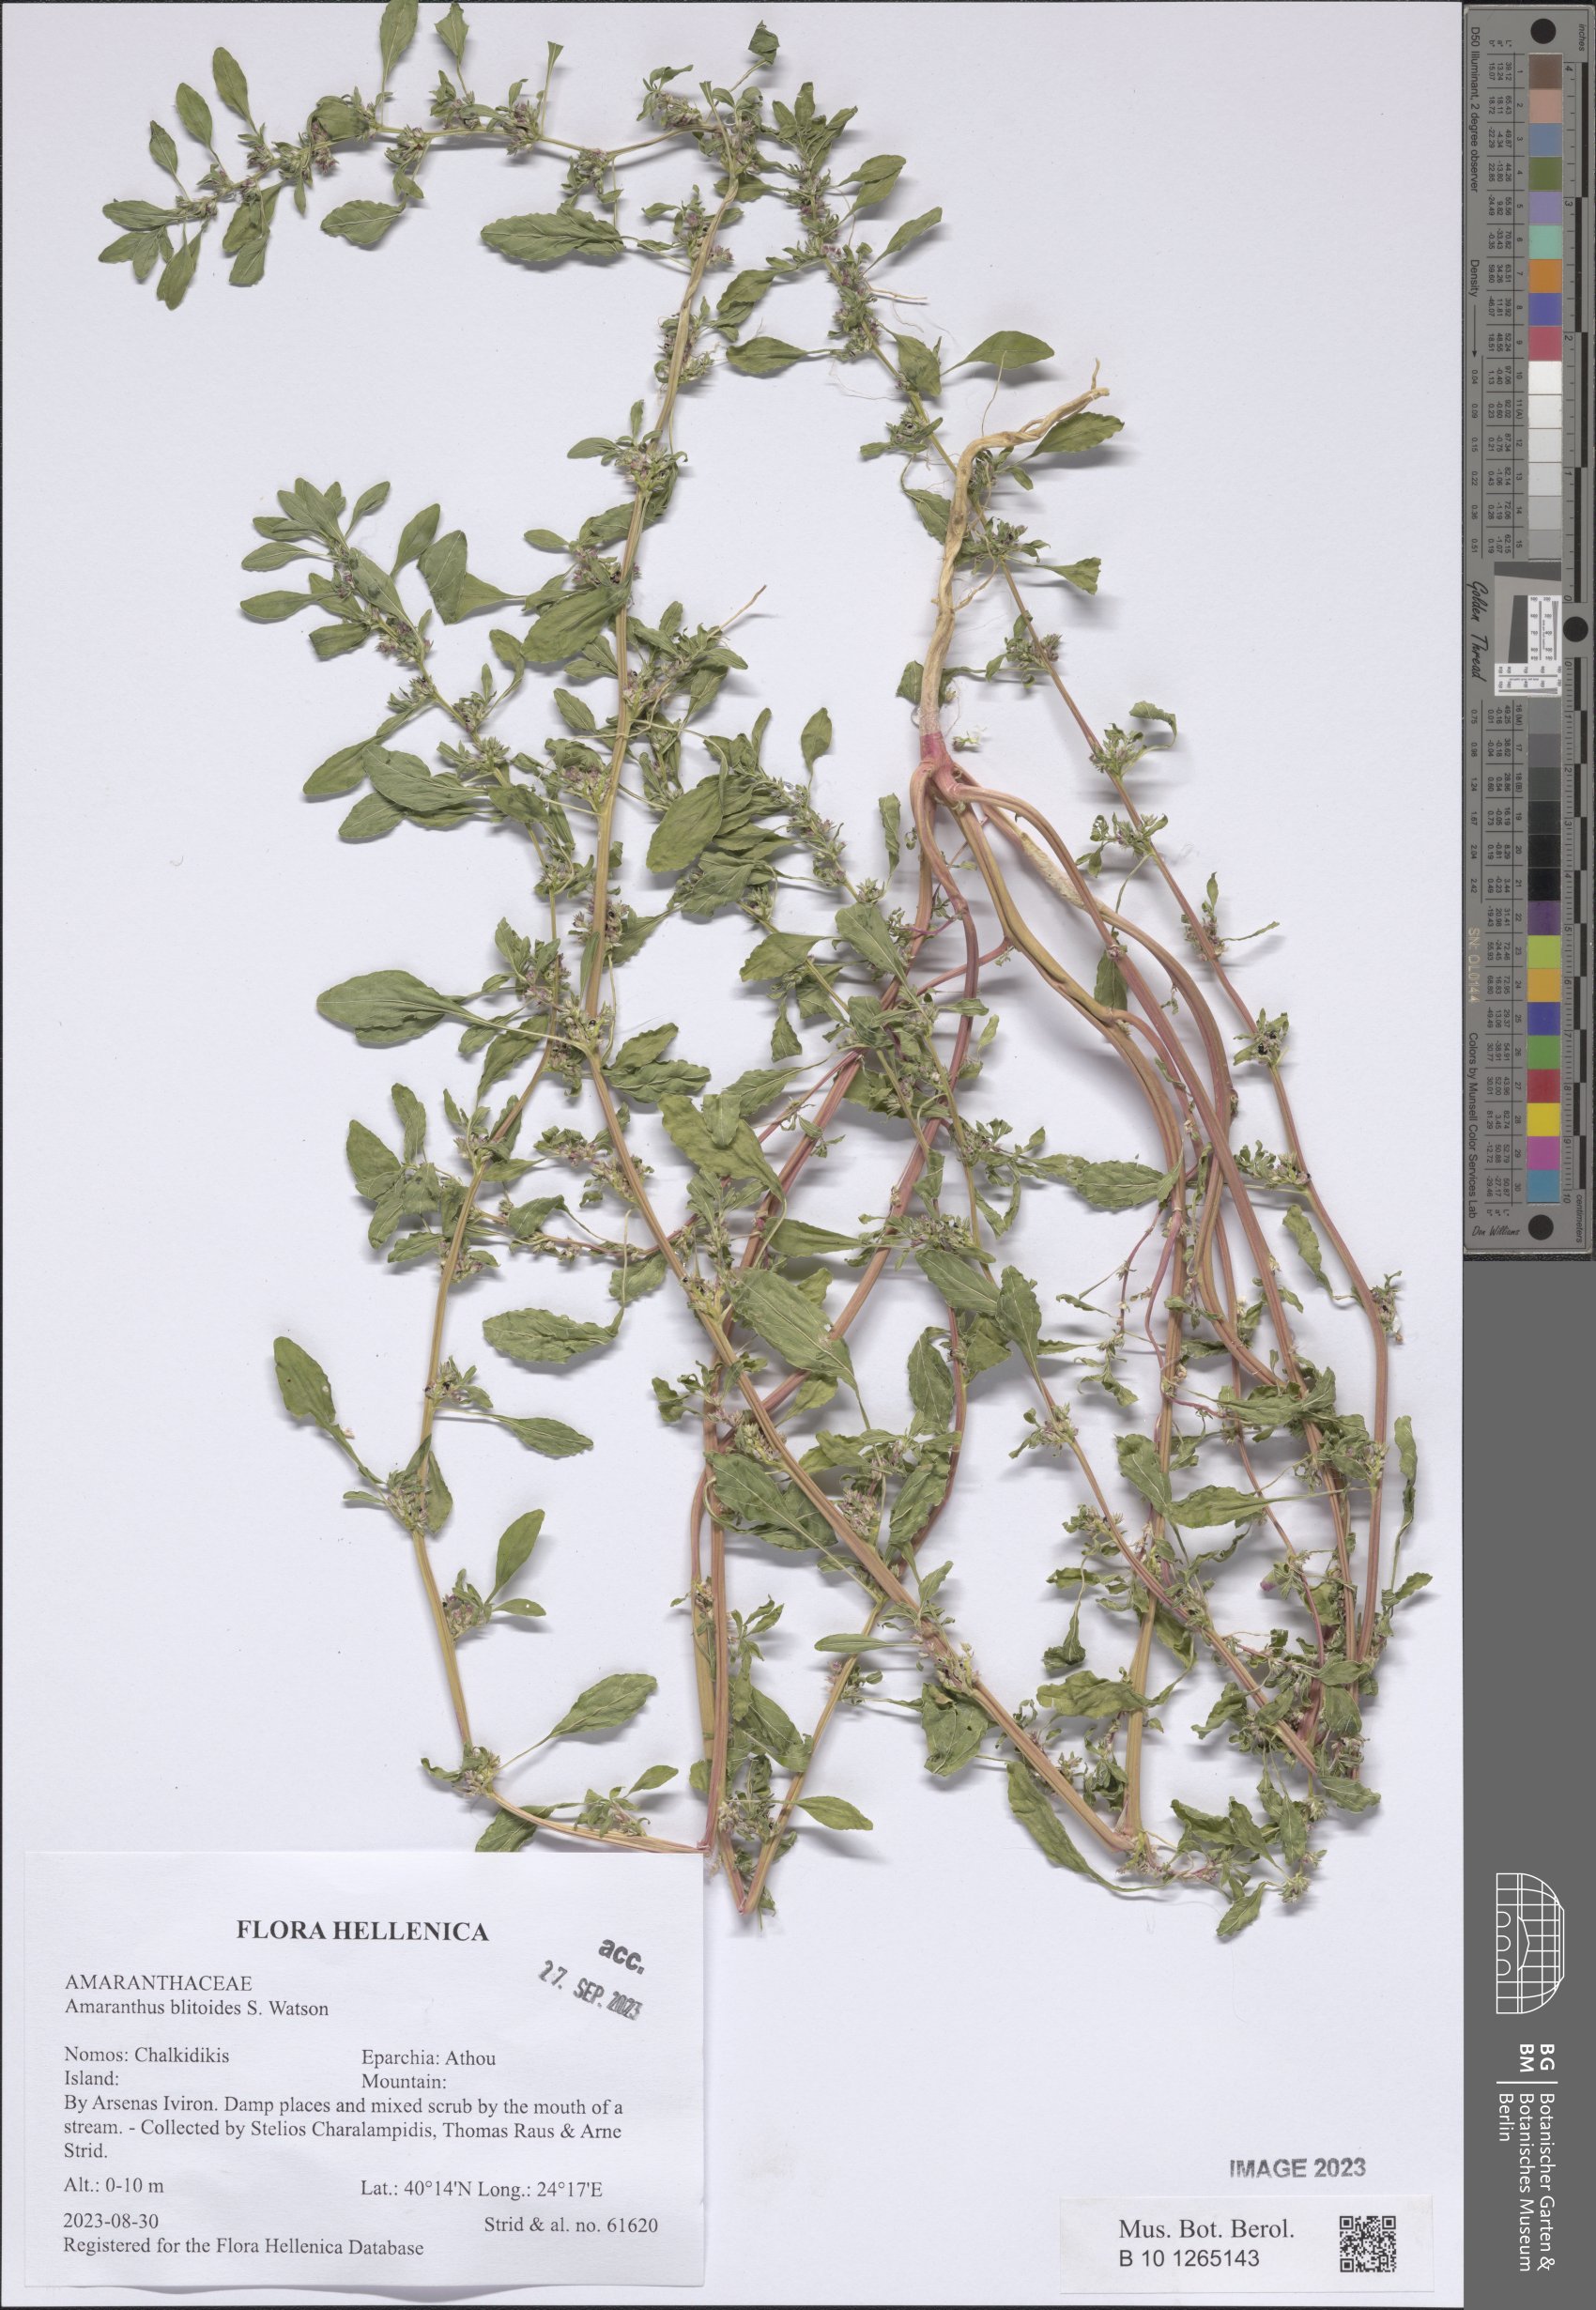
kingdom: Plantae
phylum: Tracheophyta
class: Magnoliopsida
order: Caryophyllales
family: Amaranthaceae
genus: Amaranthus
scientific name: Amaranthus blitoides
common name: Prostrate pigweed
